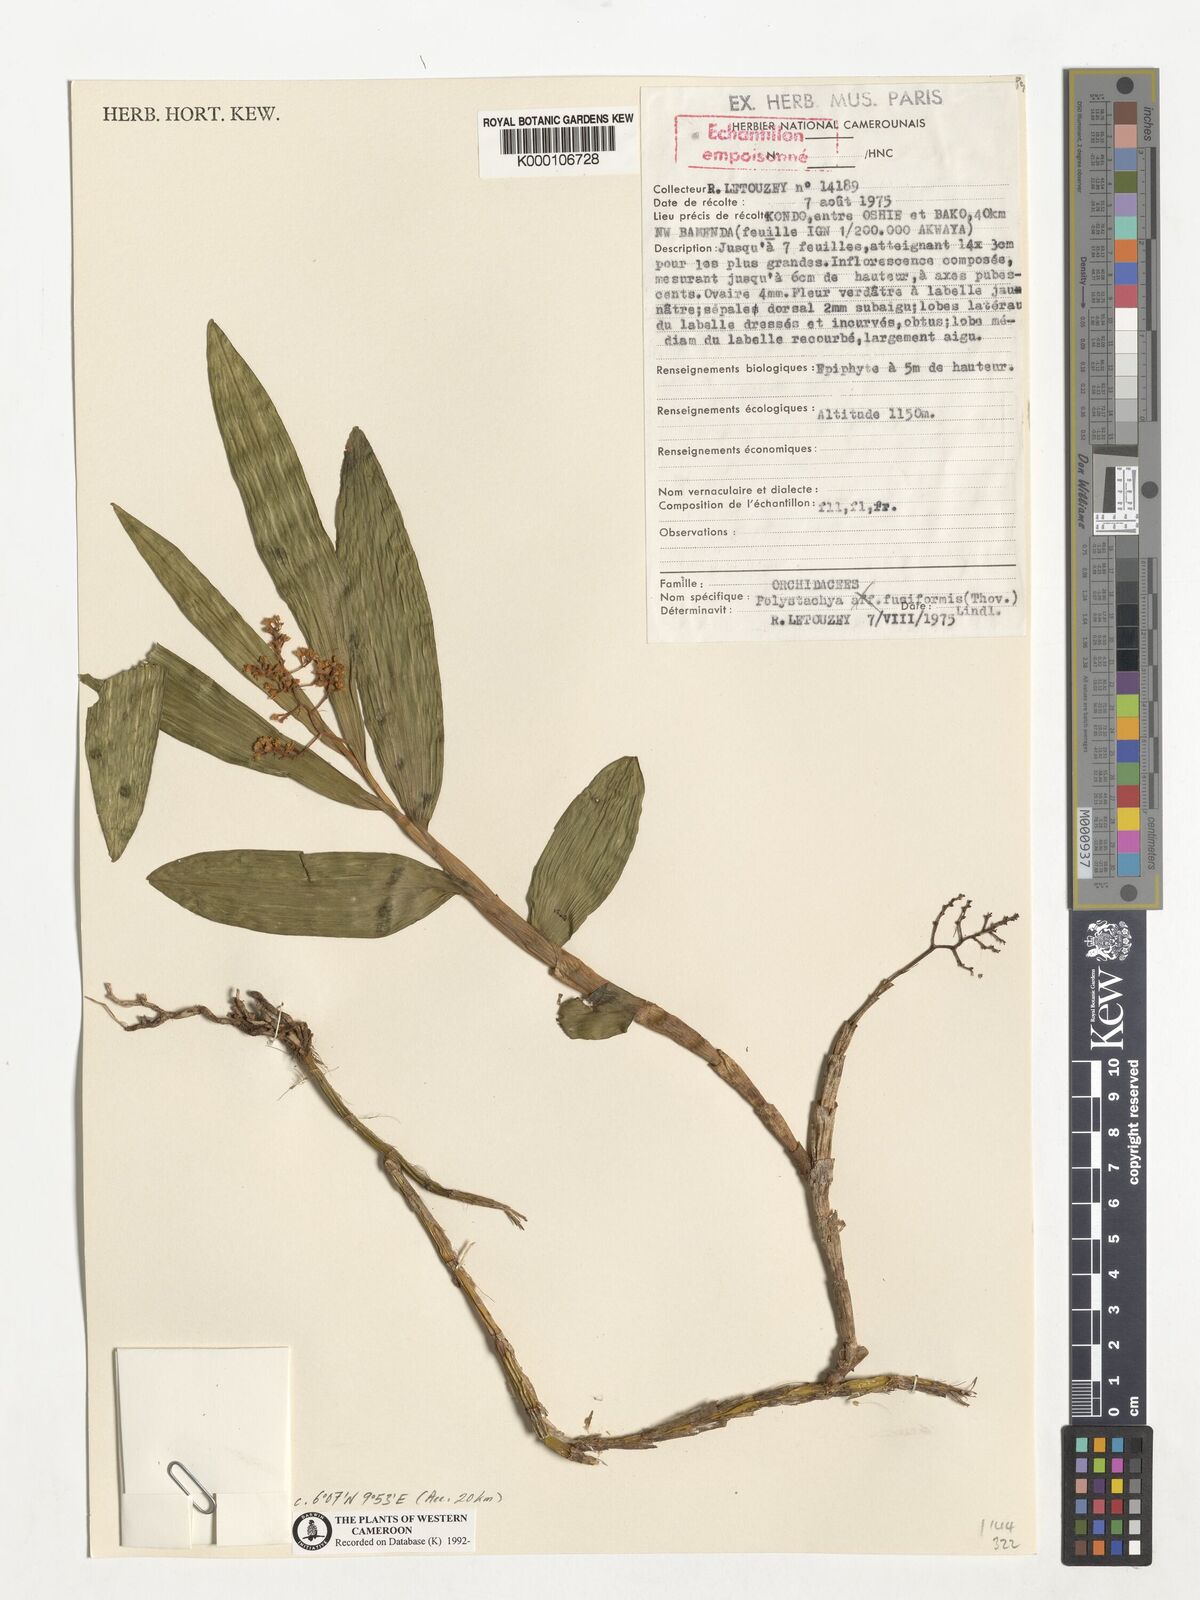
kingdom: Plantae
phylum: Tracheophyta
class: Liliopsida
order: Asparagales
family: Orchidaceae
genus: Polystachya
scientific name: Polystachya fusiformis
